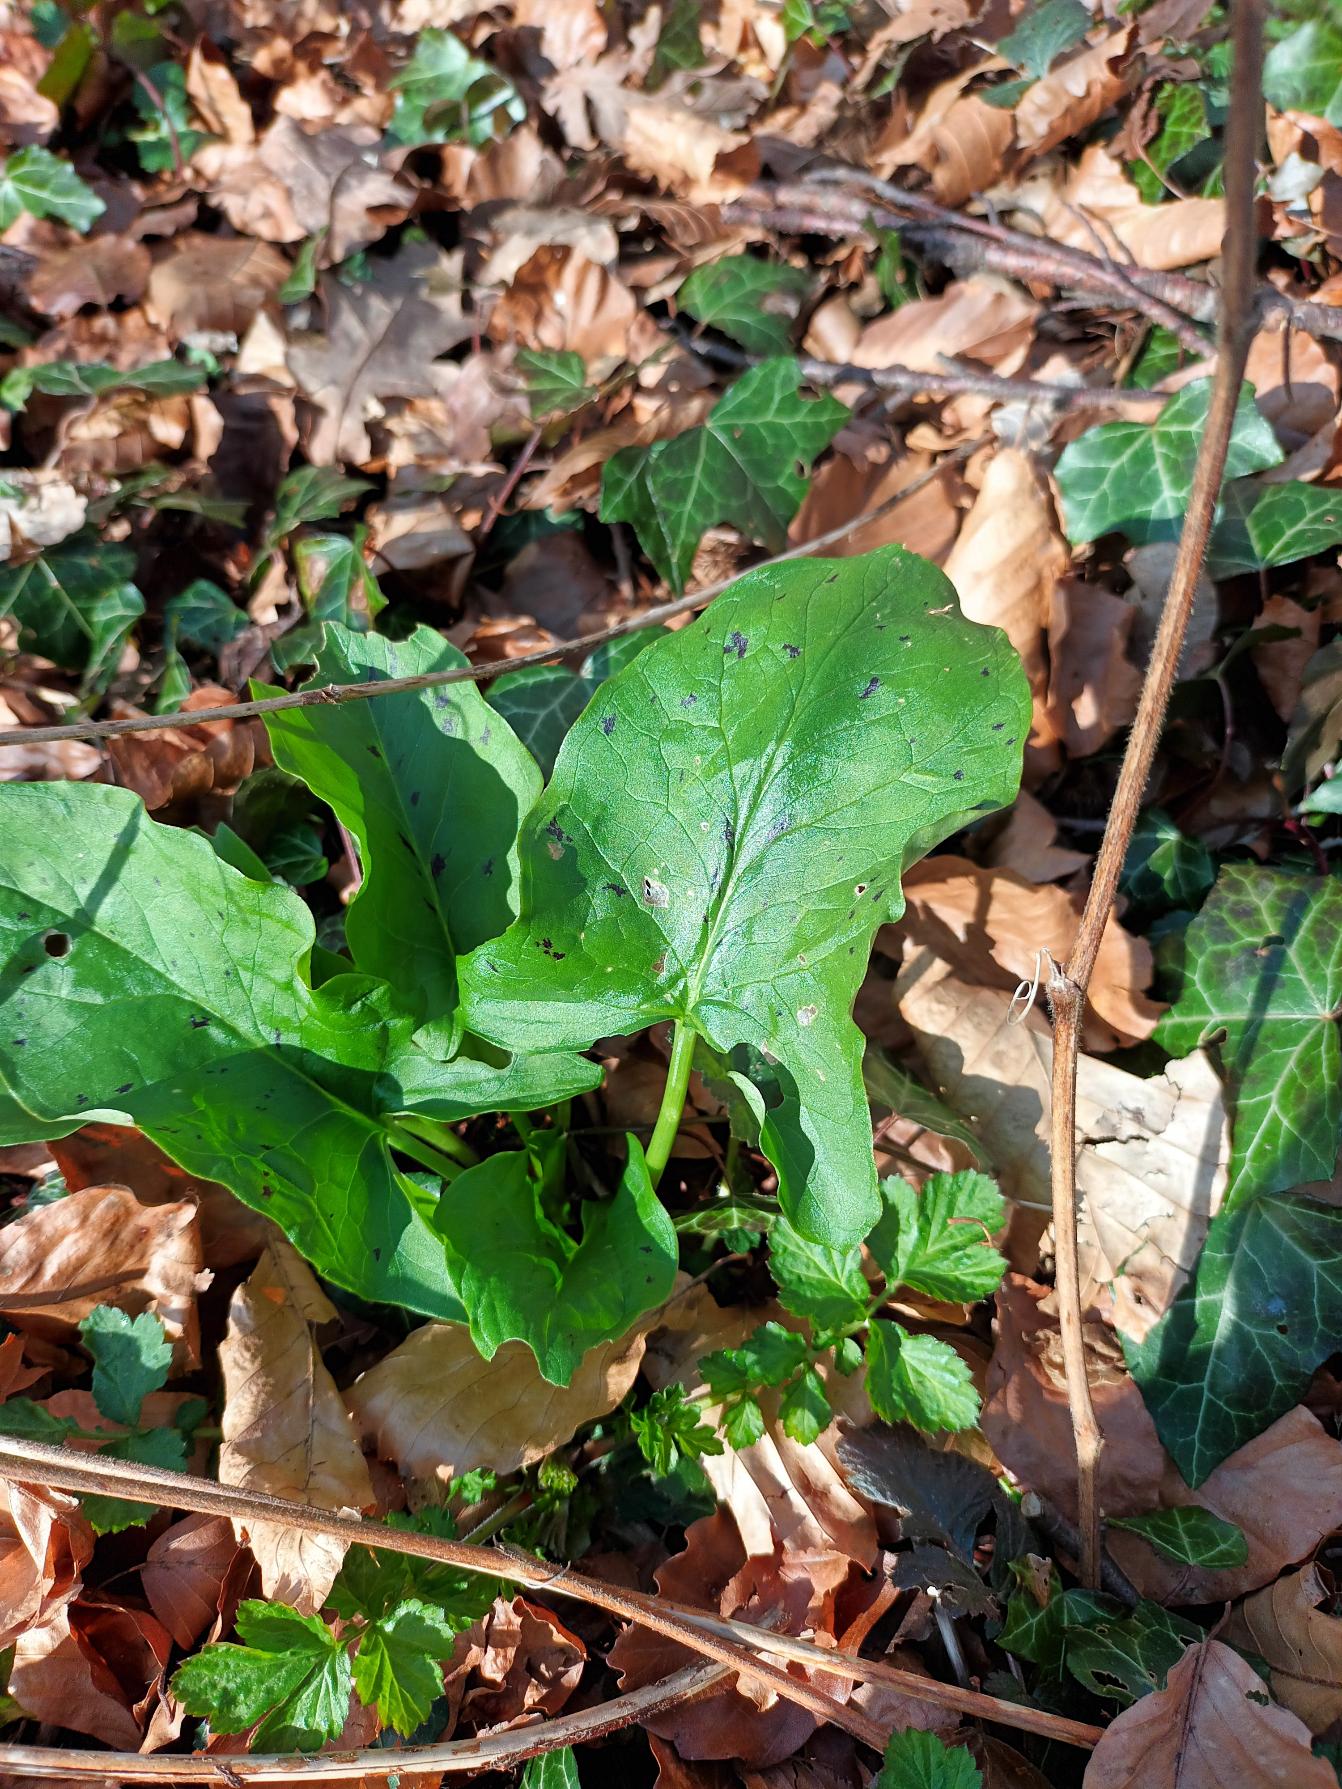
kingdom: Plantae
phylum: Tracheophyta
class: Liliopsida
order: Alismatales
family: Araceae
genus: Arum
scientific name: Arum maculatum
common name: Plettet arum
